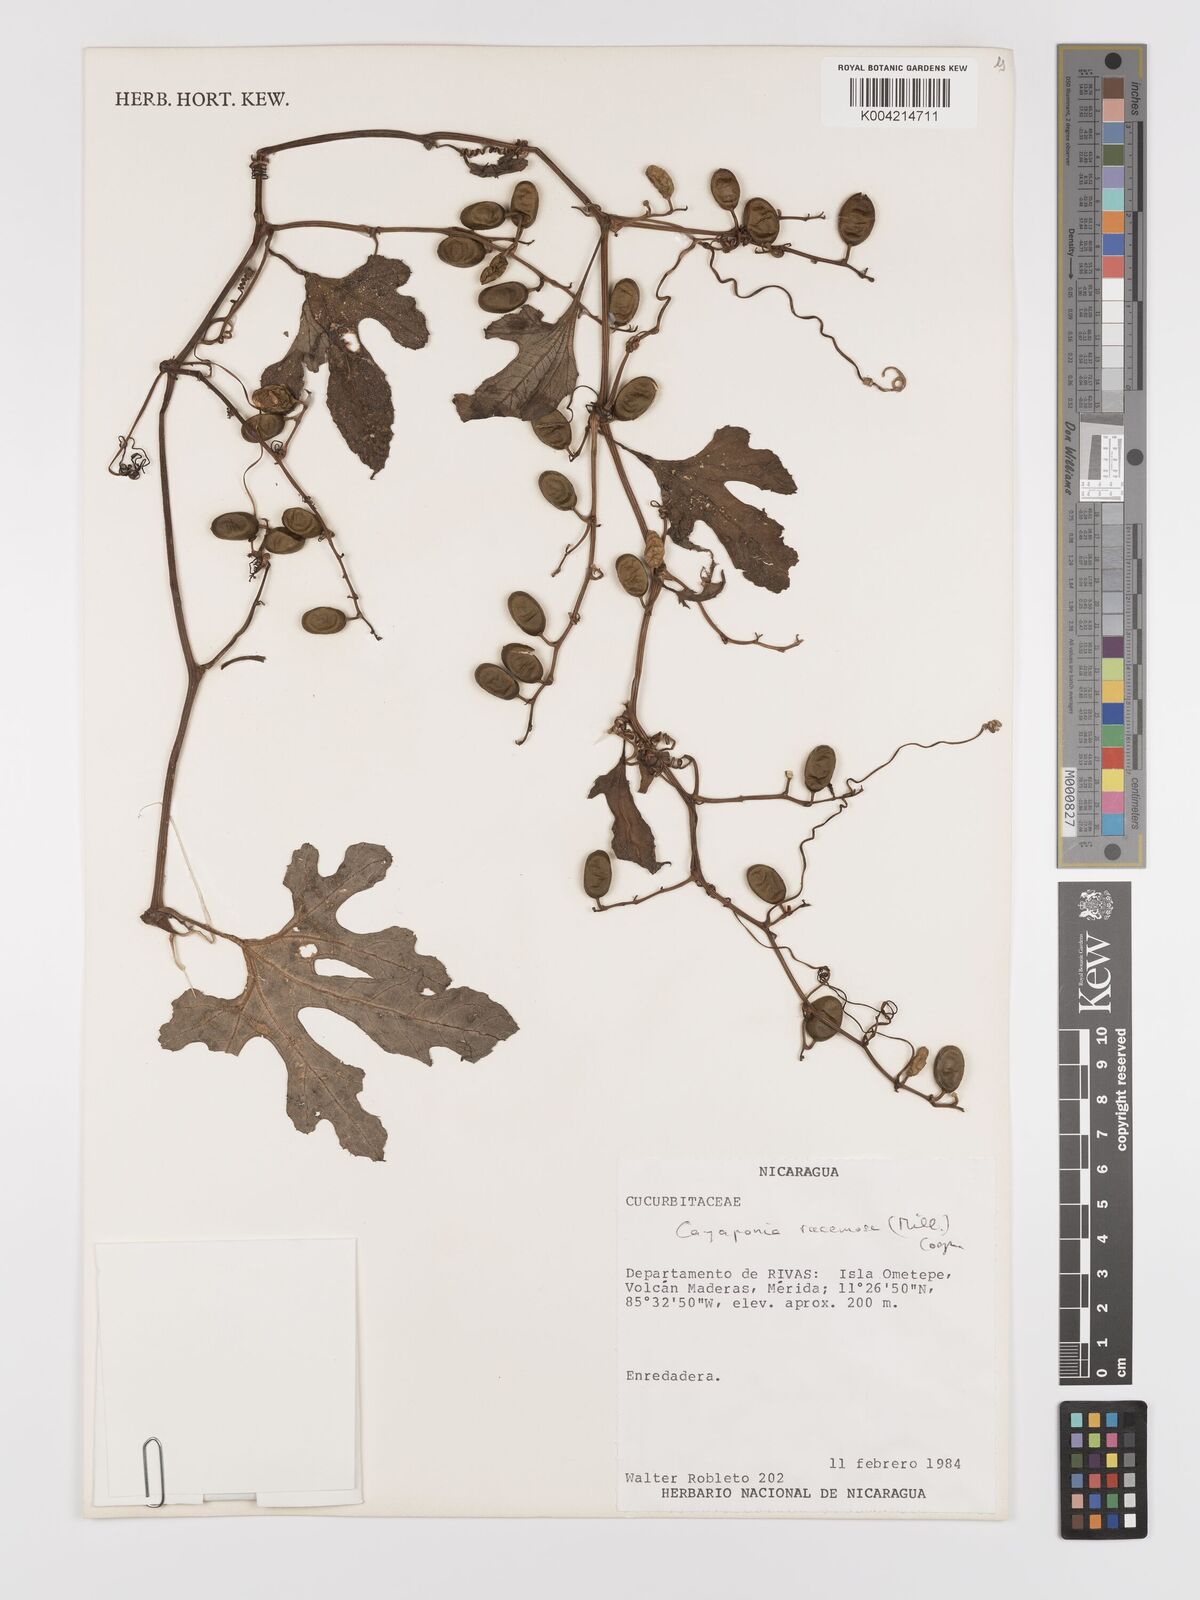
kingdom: Plantae
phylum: Tracheophyta
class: Magnoliopsida
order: Cucurbitales
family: Cucurbitaceae
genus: Cayaponia
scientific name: Cayaponia racemosa
